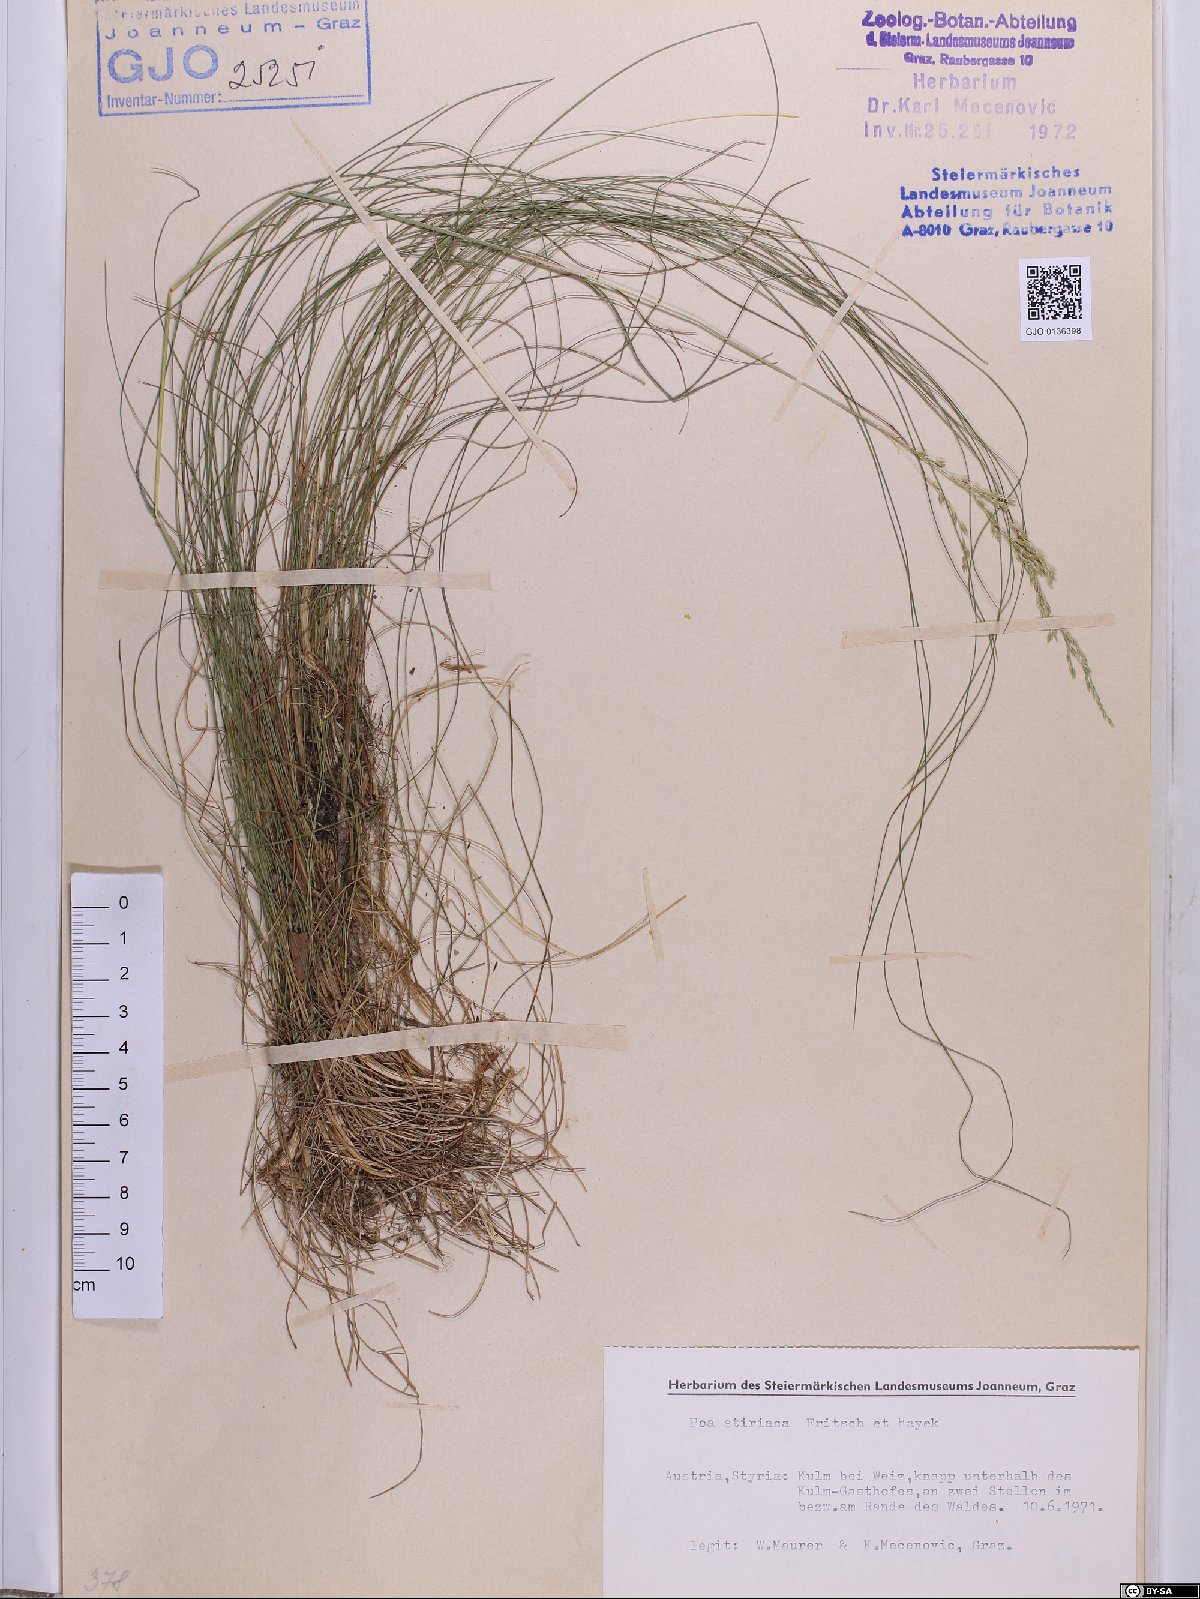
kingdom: Plantae
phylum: Tracheophyta
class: Liliopsida
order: Poales
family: Poaceae
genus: Poa
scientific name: Poa stiriaca
